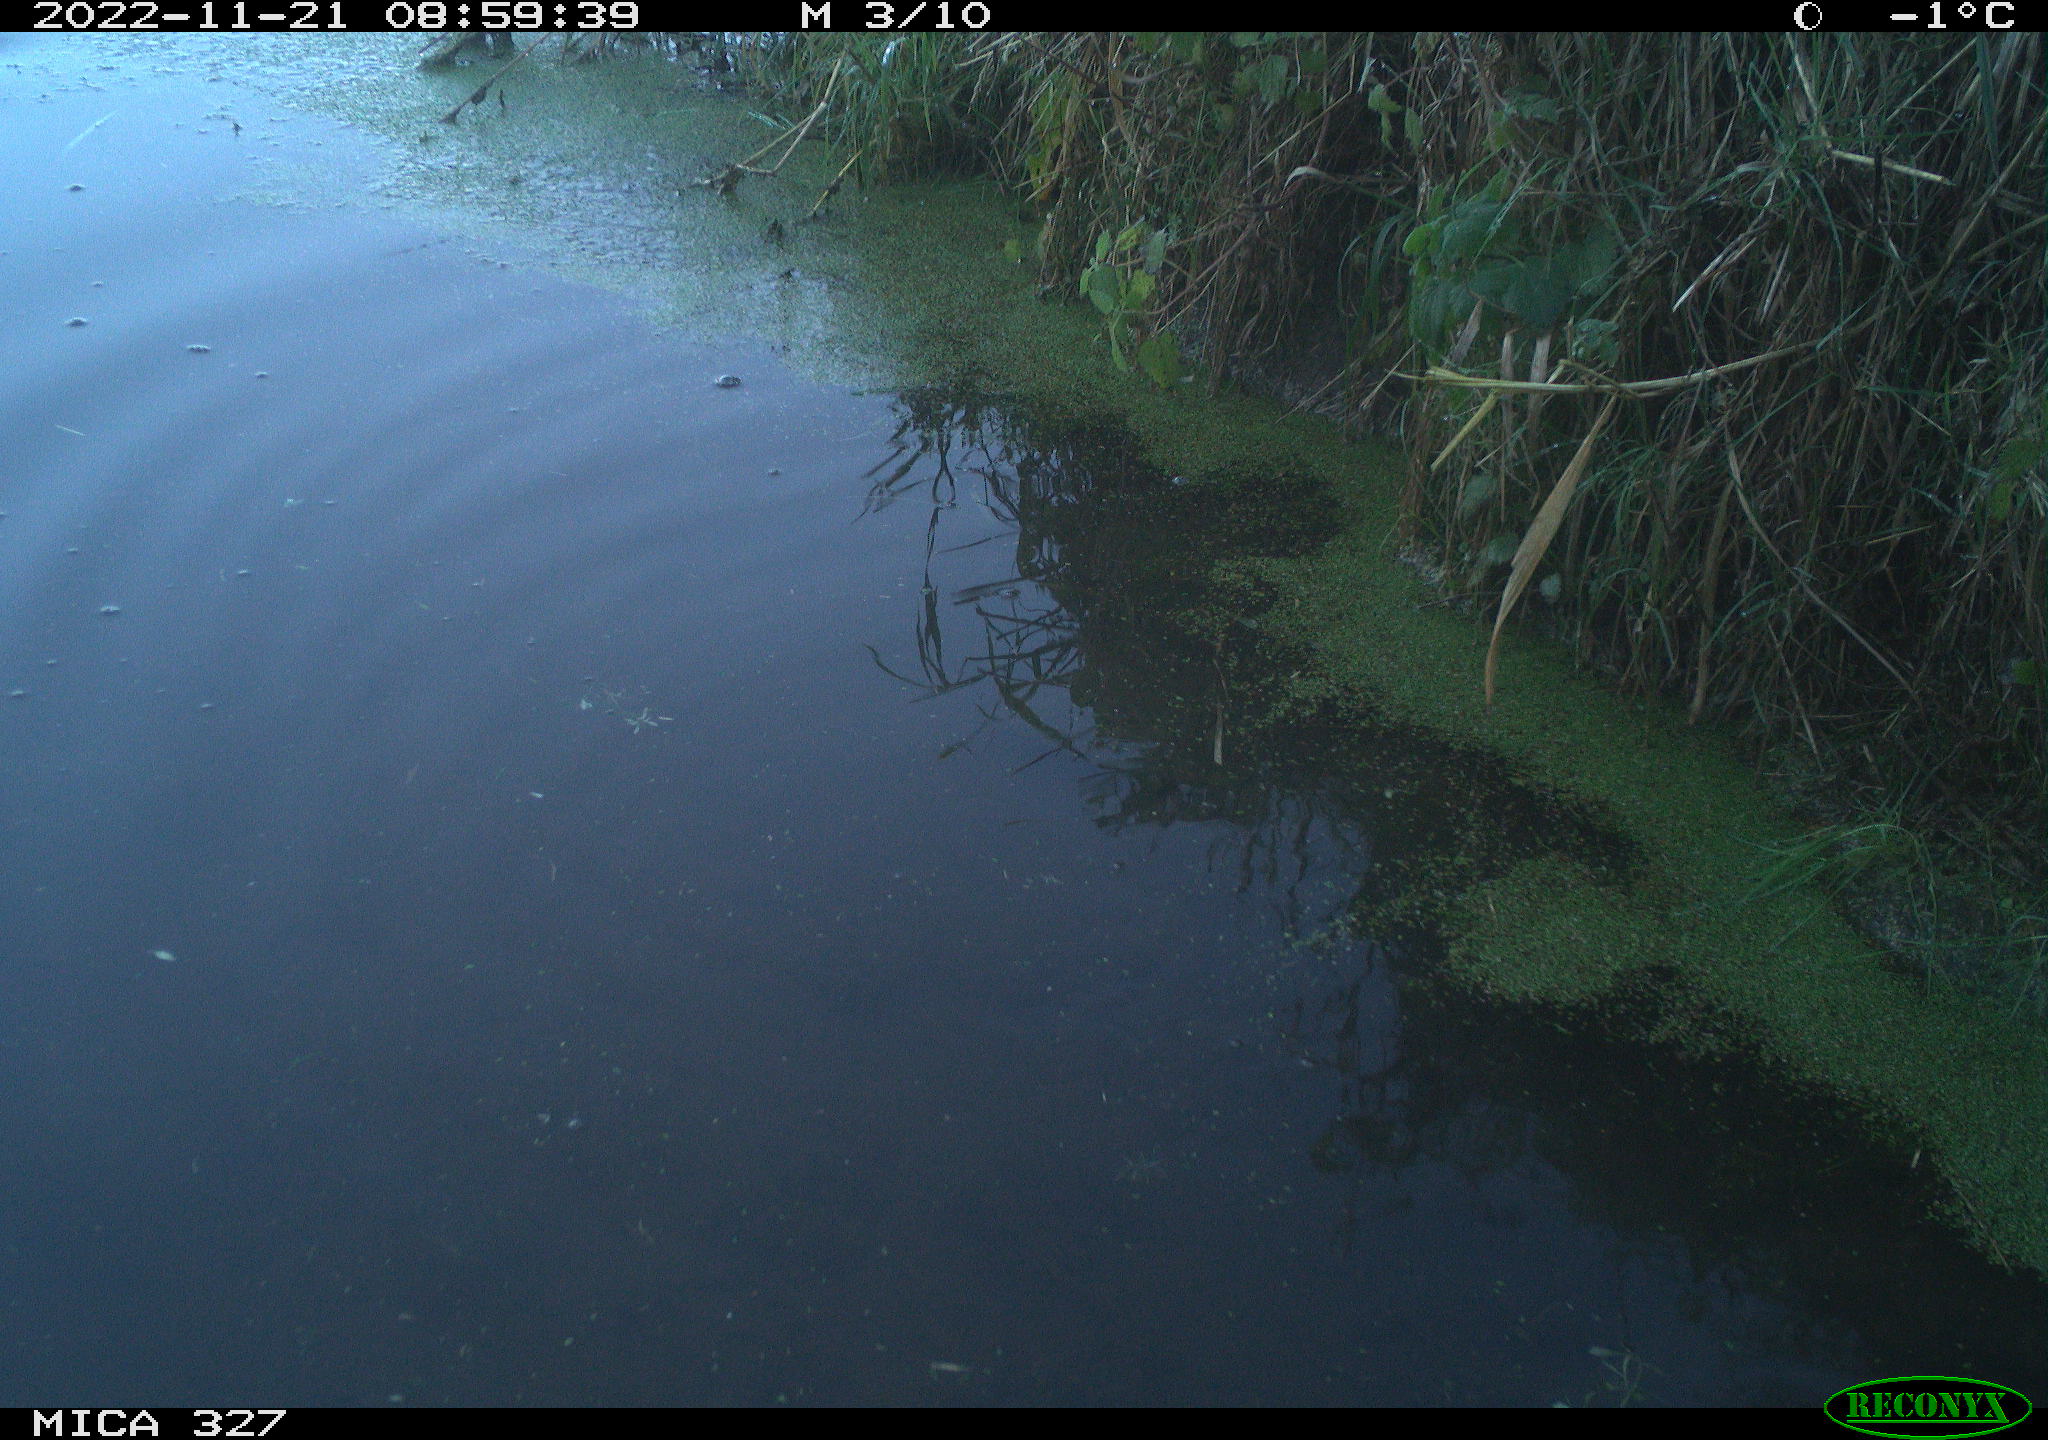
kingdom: Animalia
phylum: Chordata
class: Aves
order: Gruiformes
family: Rallidae
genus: Gallinula
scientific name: Gallinula chloropus
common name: Common moorhen
